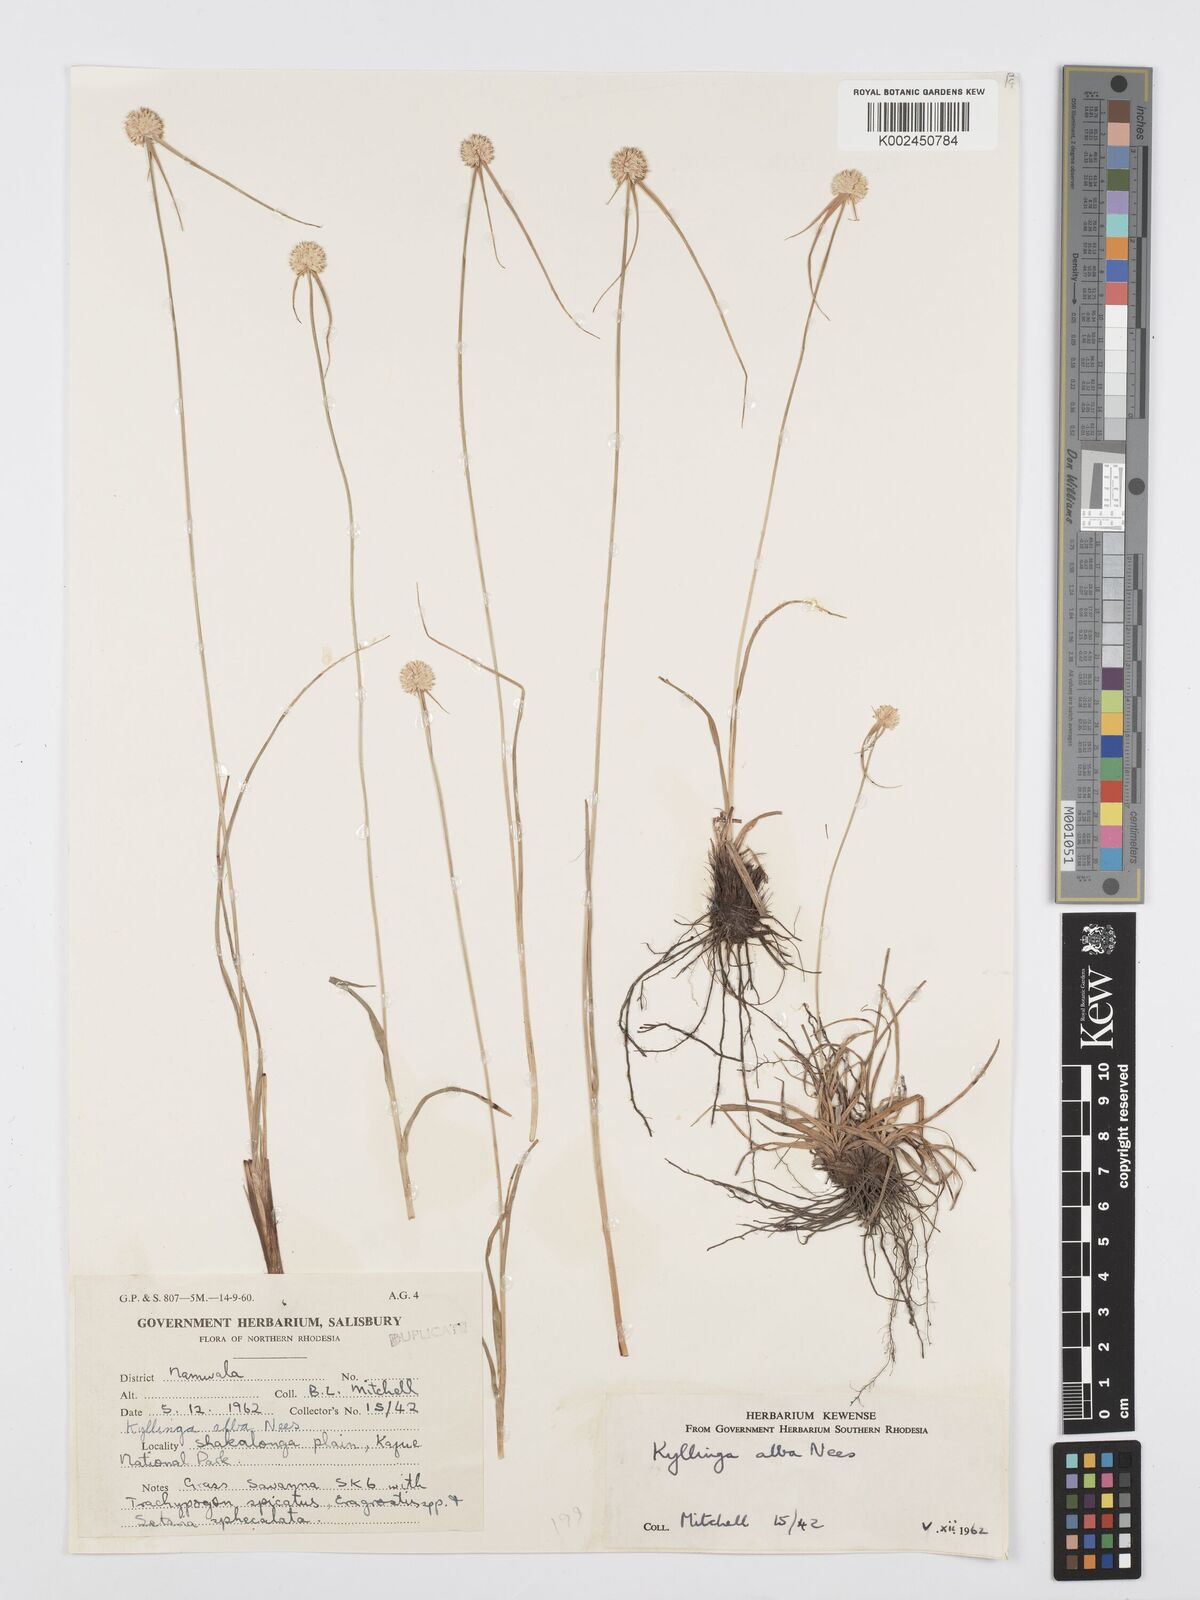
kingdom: Plantae
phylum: Tracheophyta
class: Liliopsida
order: Poales
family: Cyperaceae
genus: Cyperus
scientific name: Cyperus rukwanus
